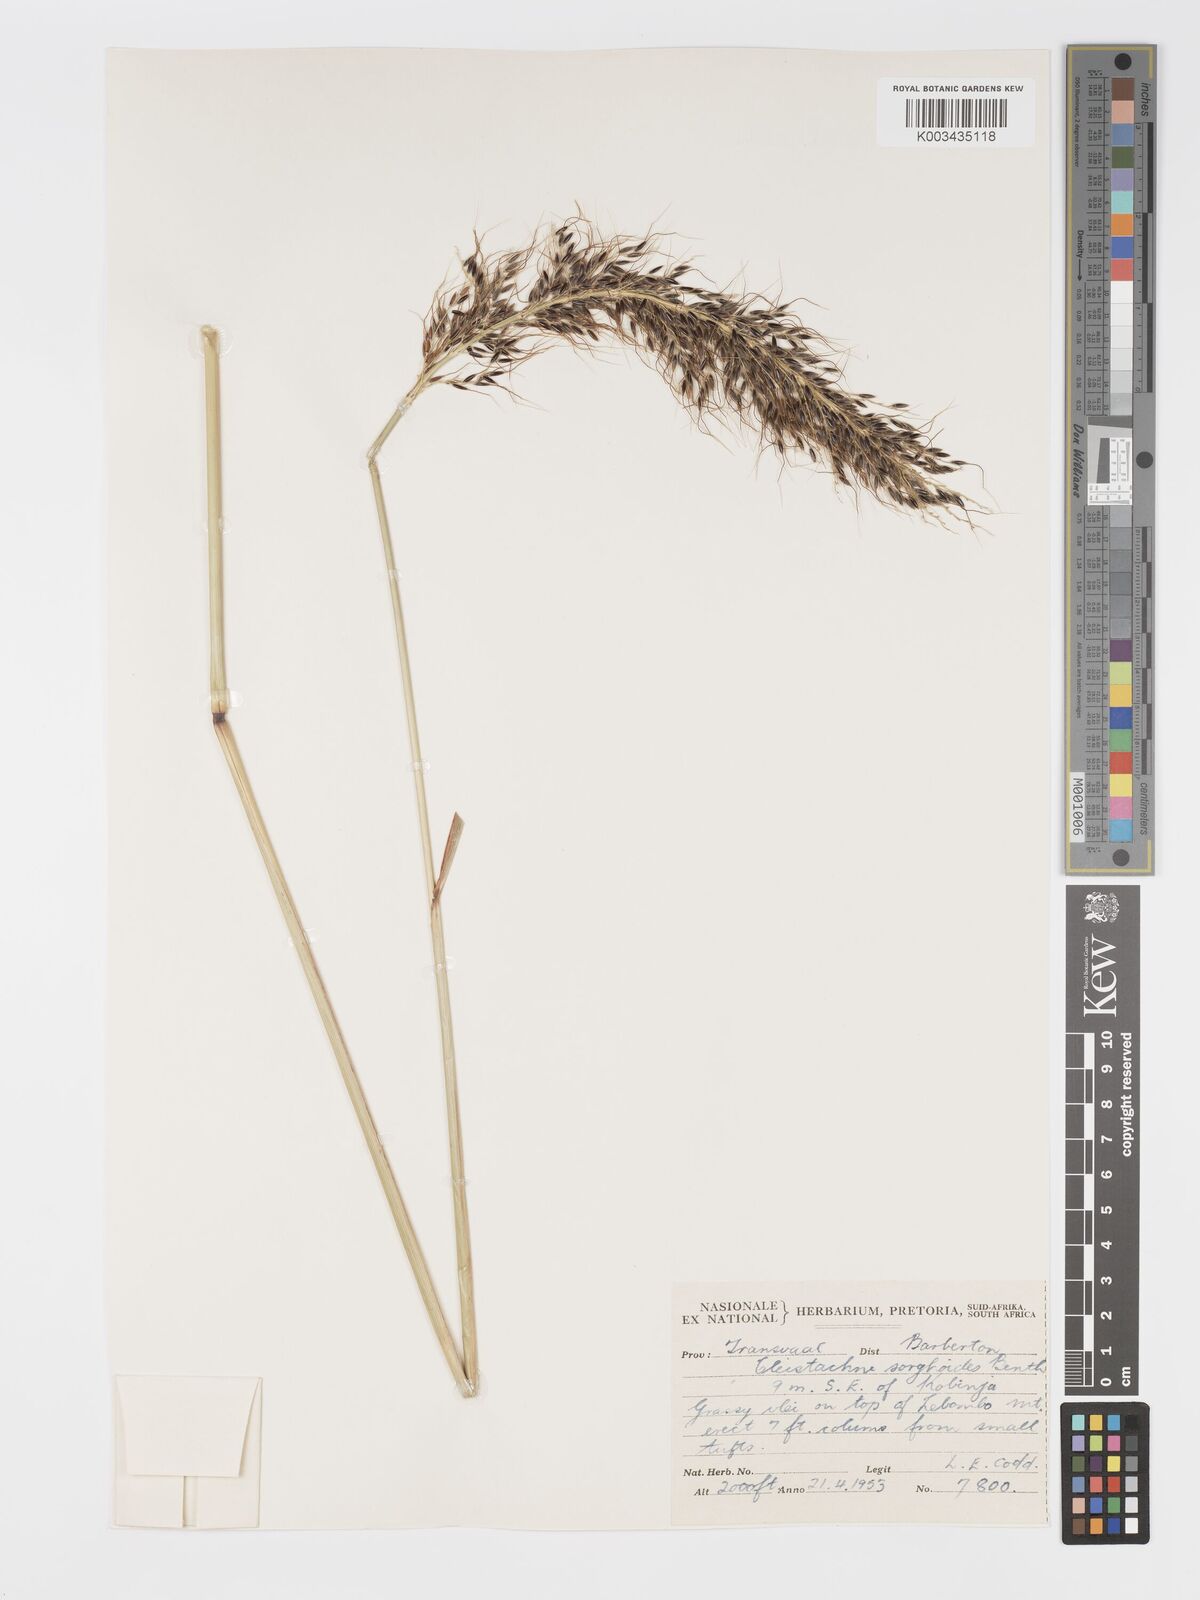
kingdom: Plantae
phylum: Tracheophyta
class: Liliopsida
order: Poales
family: Poaceae
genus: Cleistachne
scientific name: Cleistachne sorghoides
